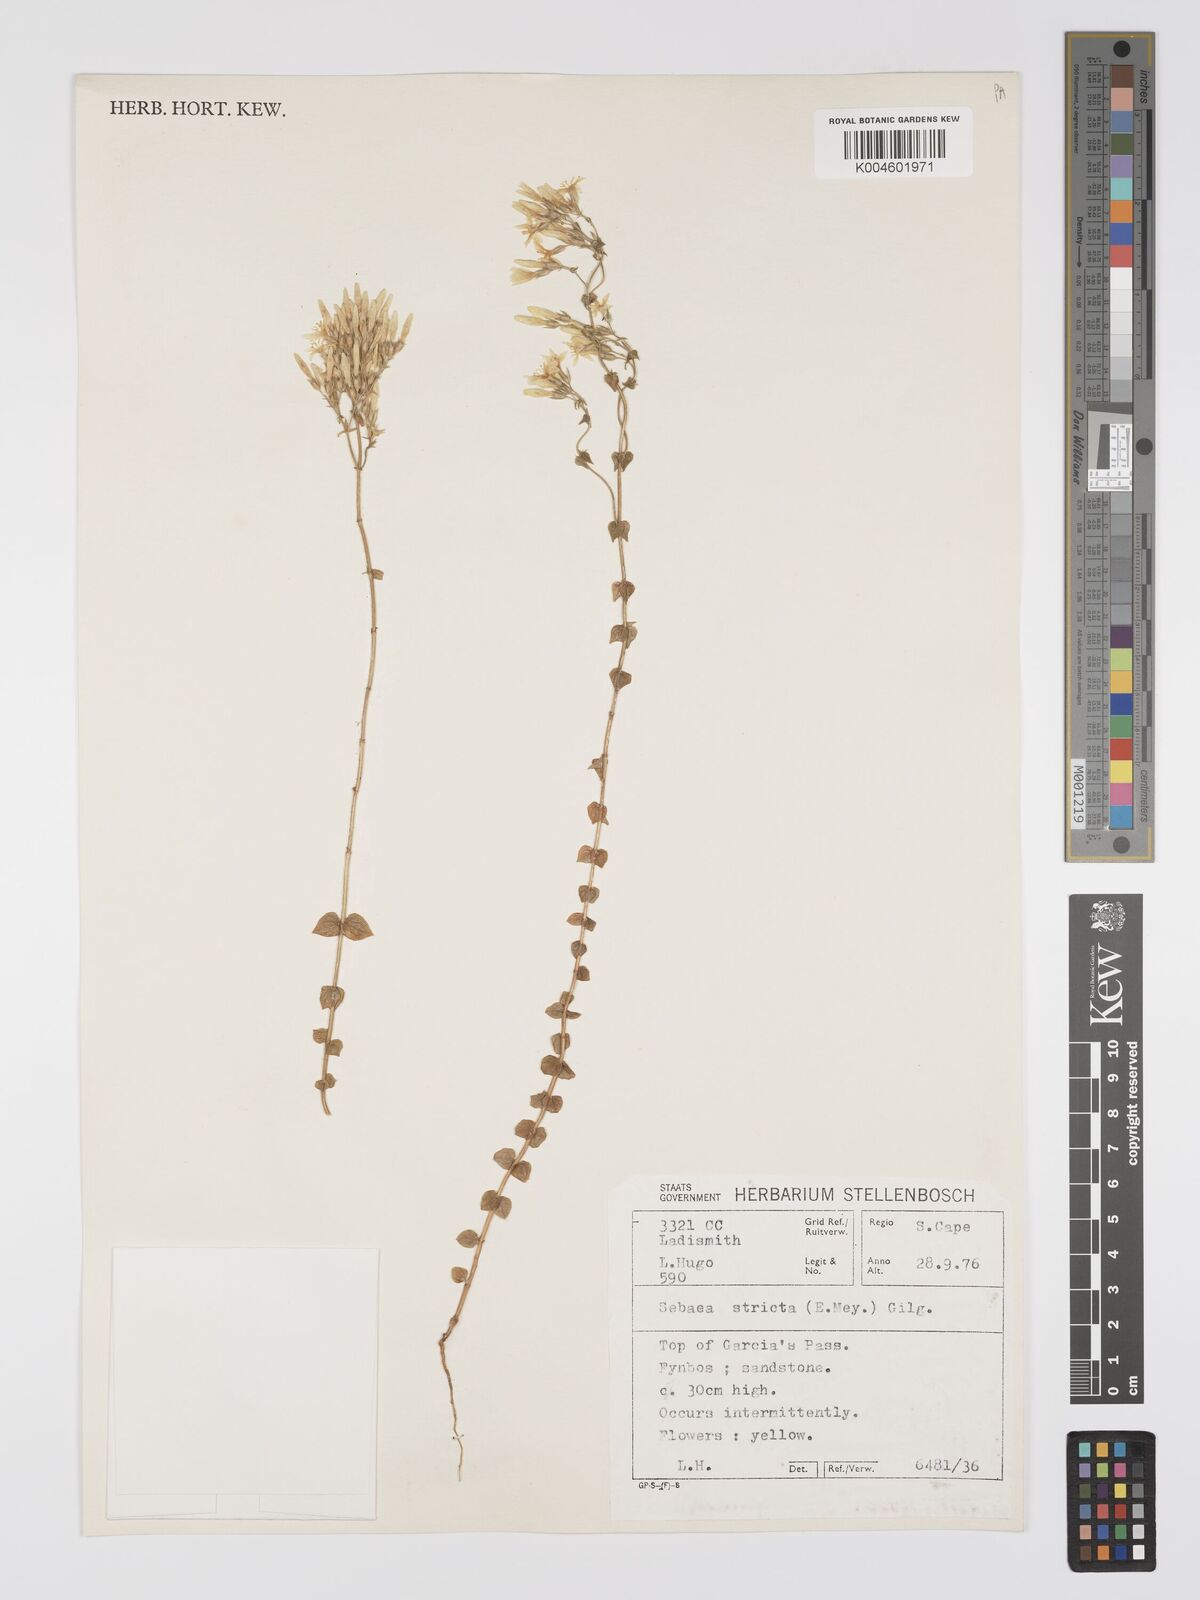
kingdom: Plantae
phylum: Tracheophyta
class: Magnoliopsida
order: Gentianales
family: Gentianaceae
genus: Sebaea
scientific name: Sebaea
